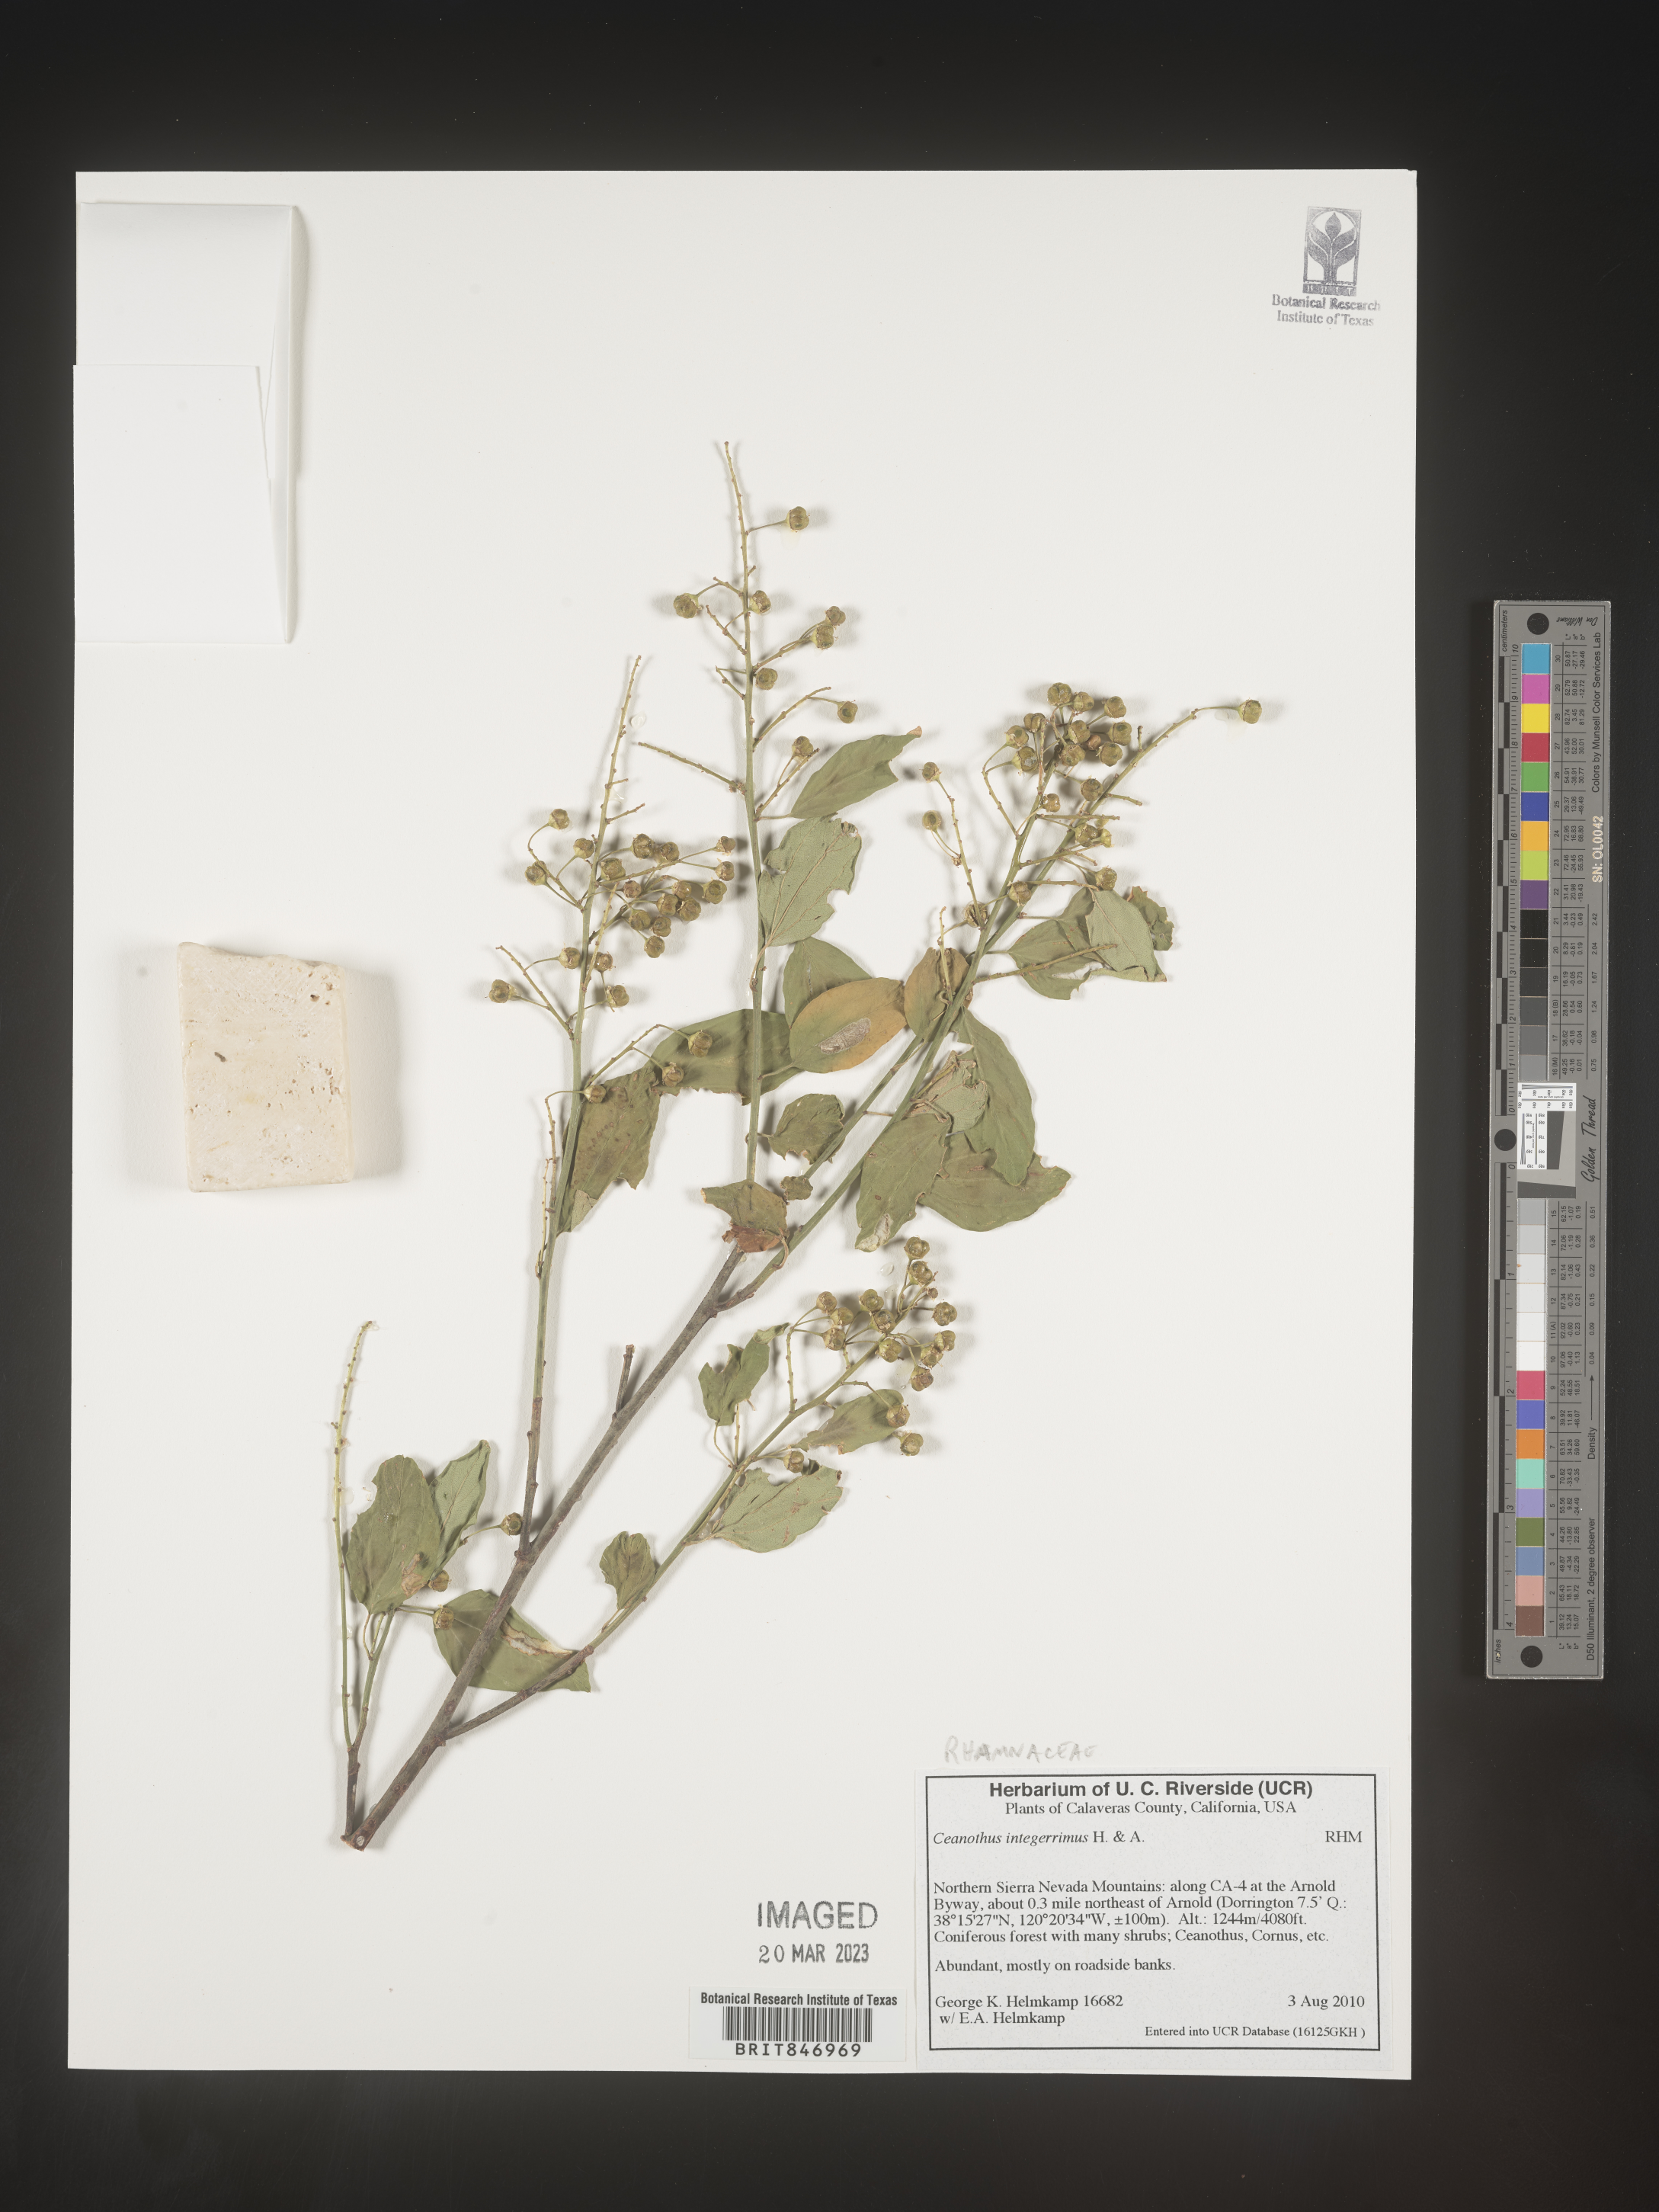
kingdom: Plantae
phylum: Tracheophyta
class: Magnoliopsida
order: Rosales
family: Rhamnaceae
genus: Ceanothus
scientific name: Ceanothus integerrimus
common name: Deerbrush ceanothus
